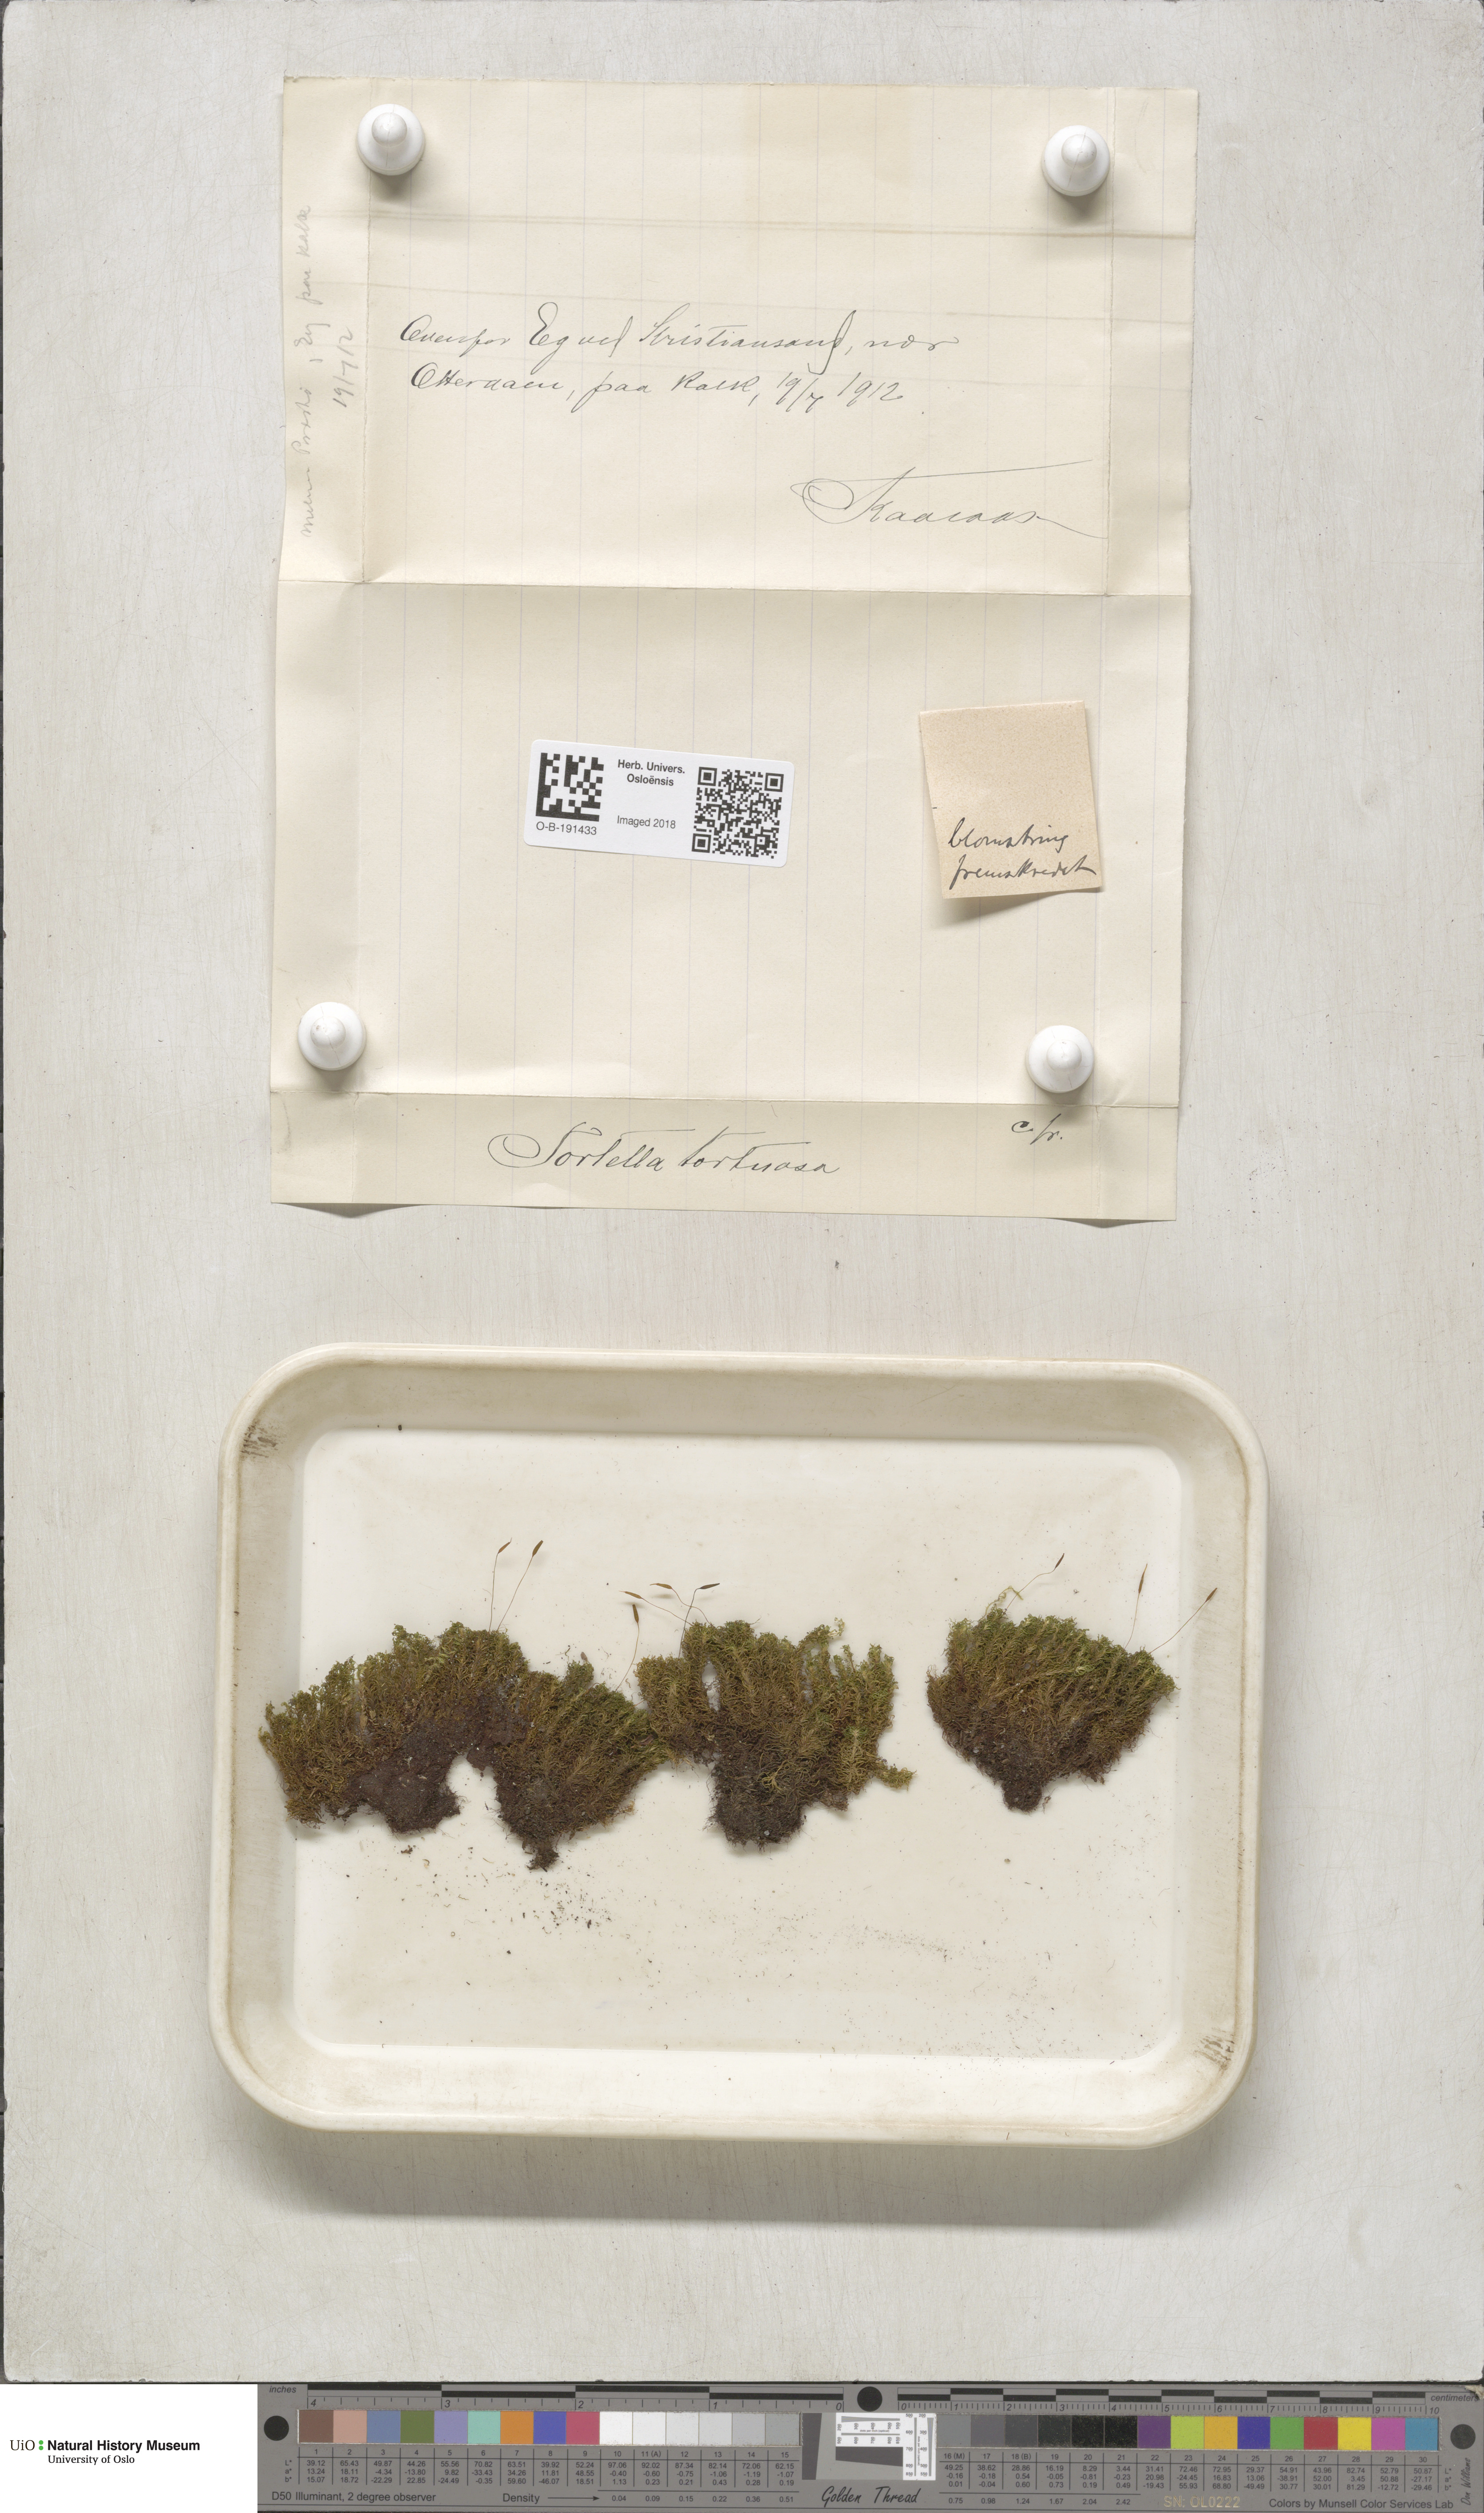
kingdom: Plantae
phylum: Bryophyta
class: Bryopsida
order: Pottiales
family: Pottiaceae
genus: Tortella
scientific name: Tortella tortuosa
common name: Frizzled crisp moss
